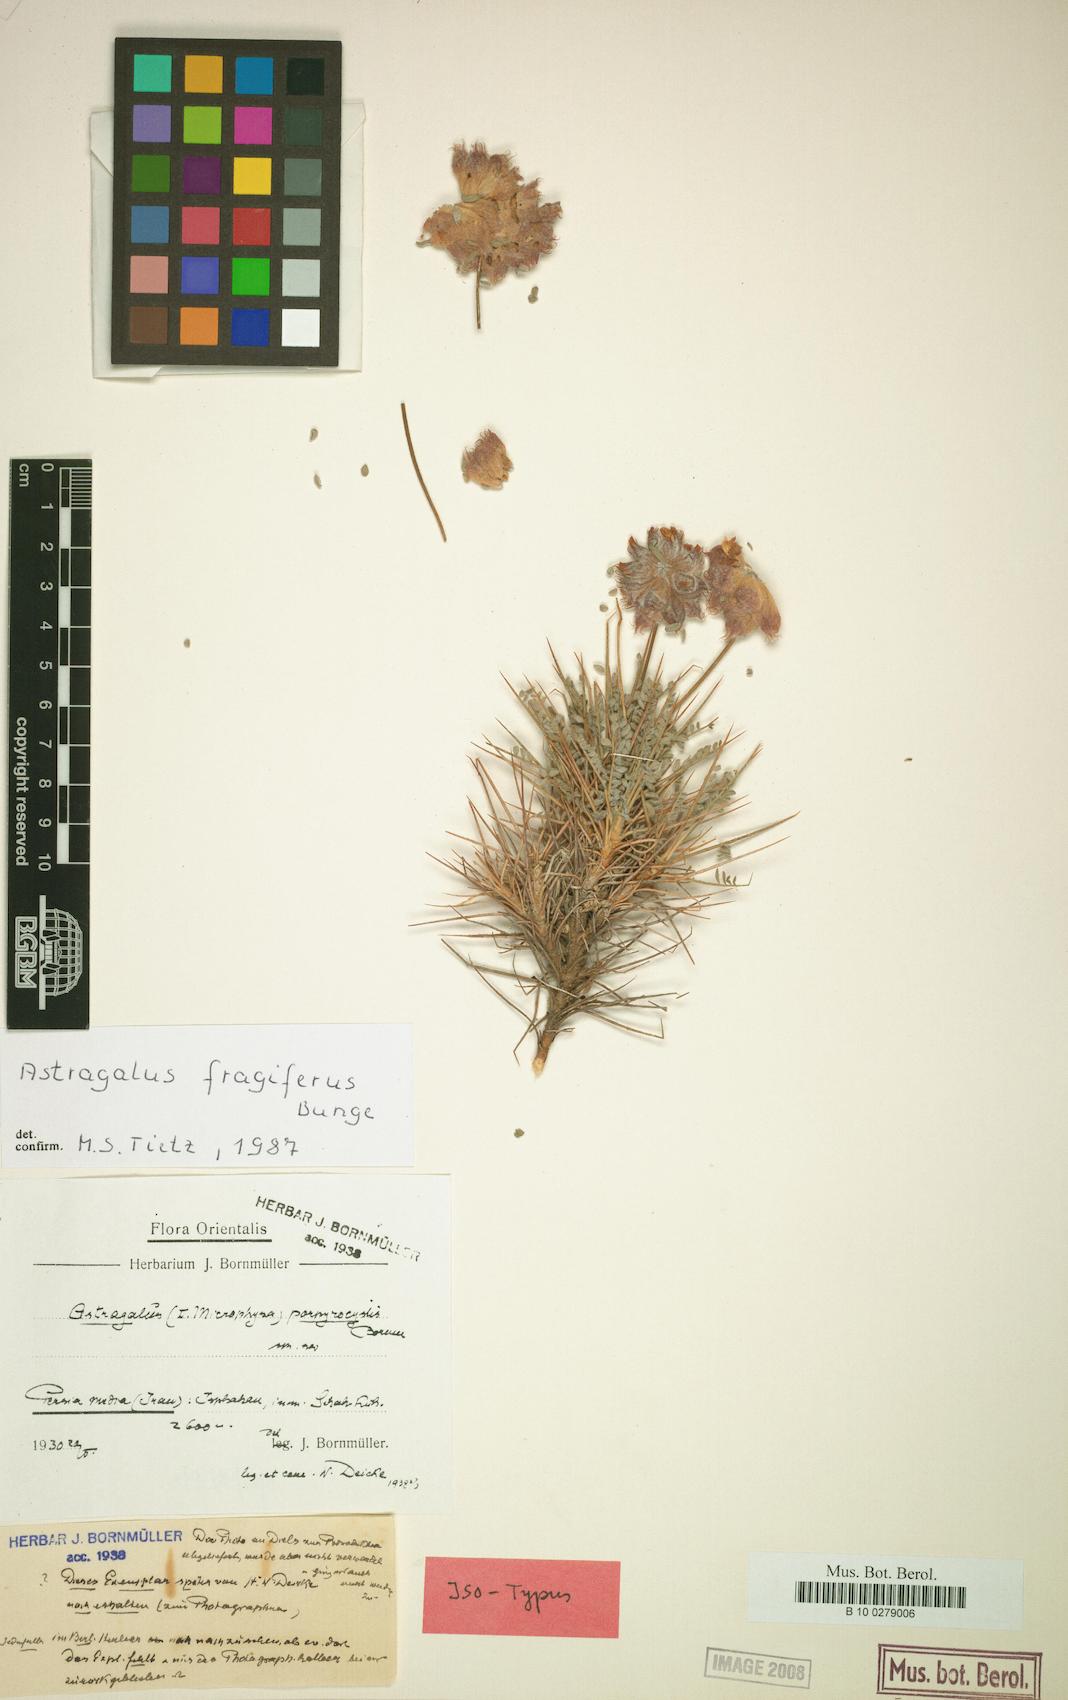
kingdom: Plantae
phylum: Tracheophyta
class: Magnoliopsida
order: Fabales
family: Fabaceae
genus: Astragalus
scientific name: Astragalus fragiferus
